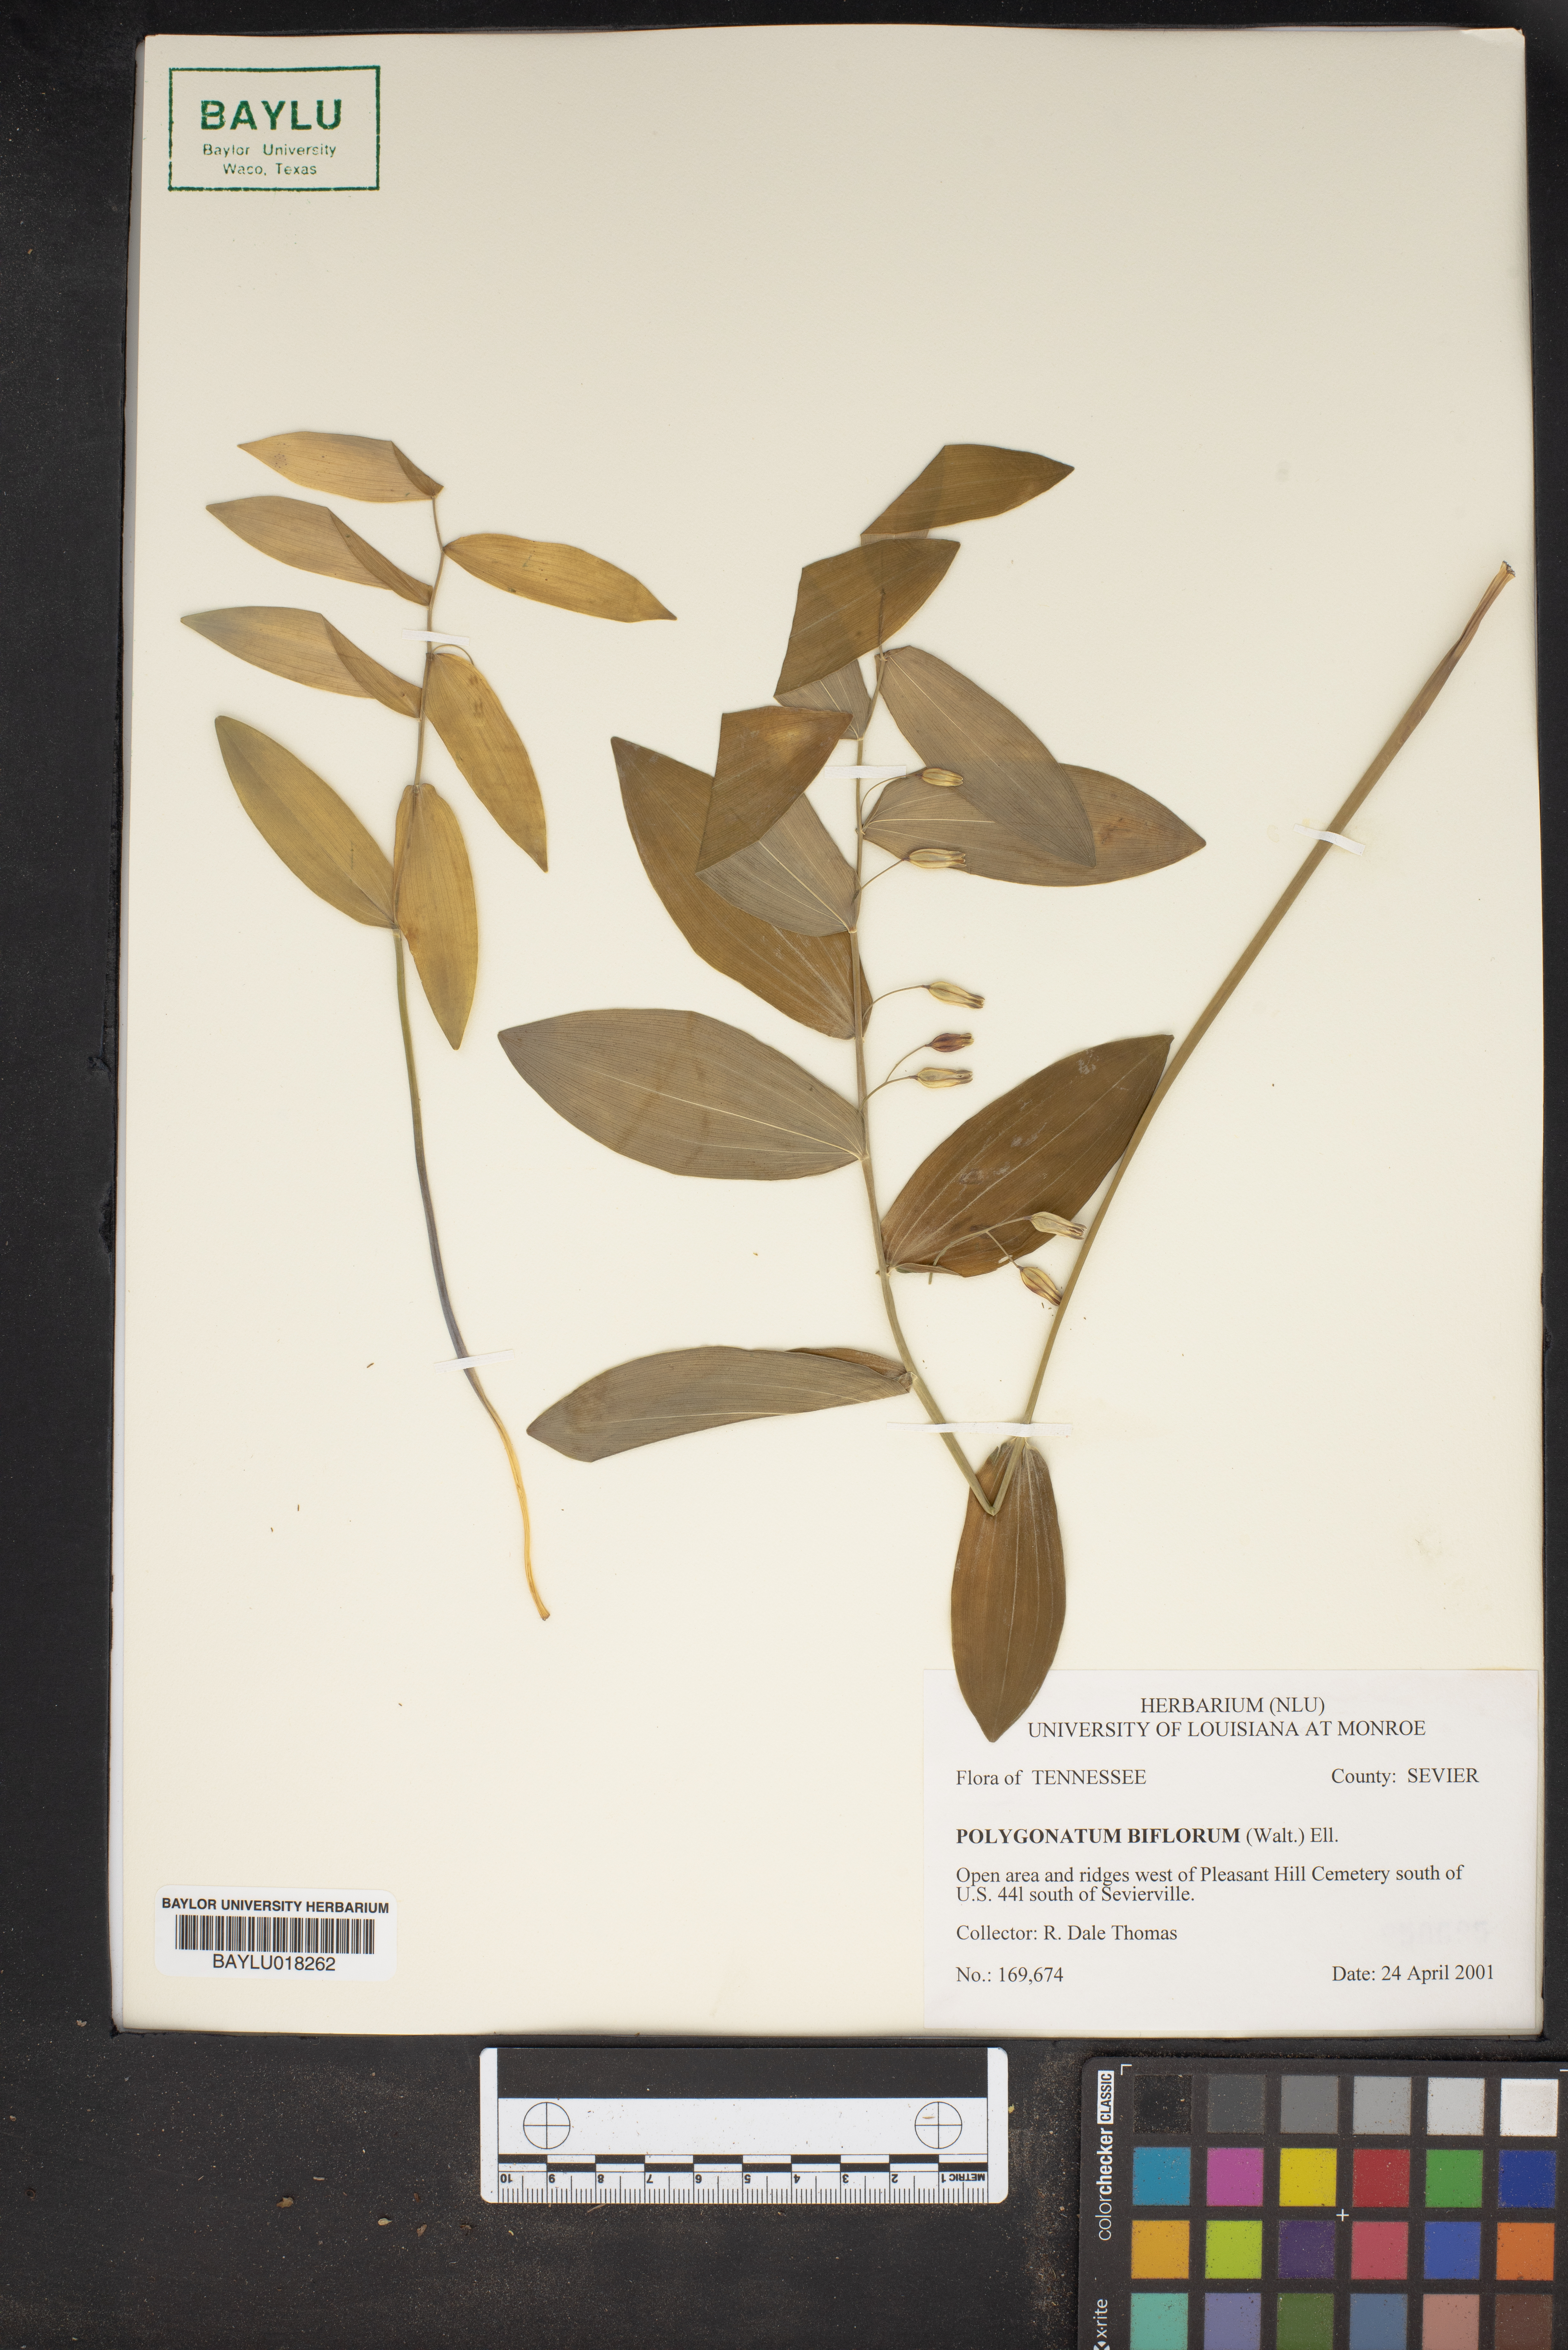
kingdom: Plantae
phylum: Tracheophyta
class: Liliopsida
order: Asparagales
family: Asparagaceae
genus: Polygonatum
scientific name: Polygonatum biflorum
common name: American solomon's-seal
